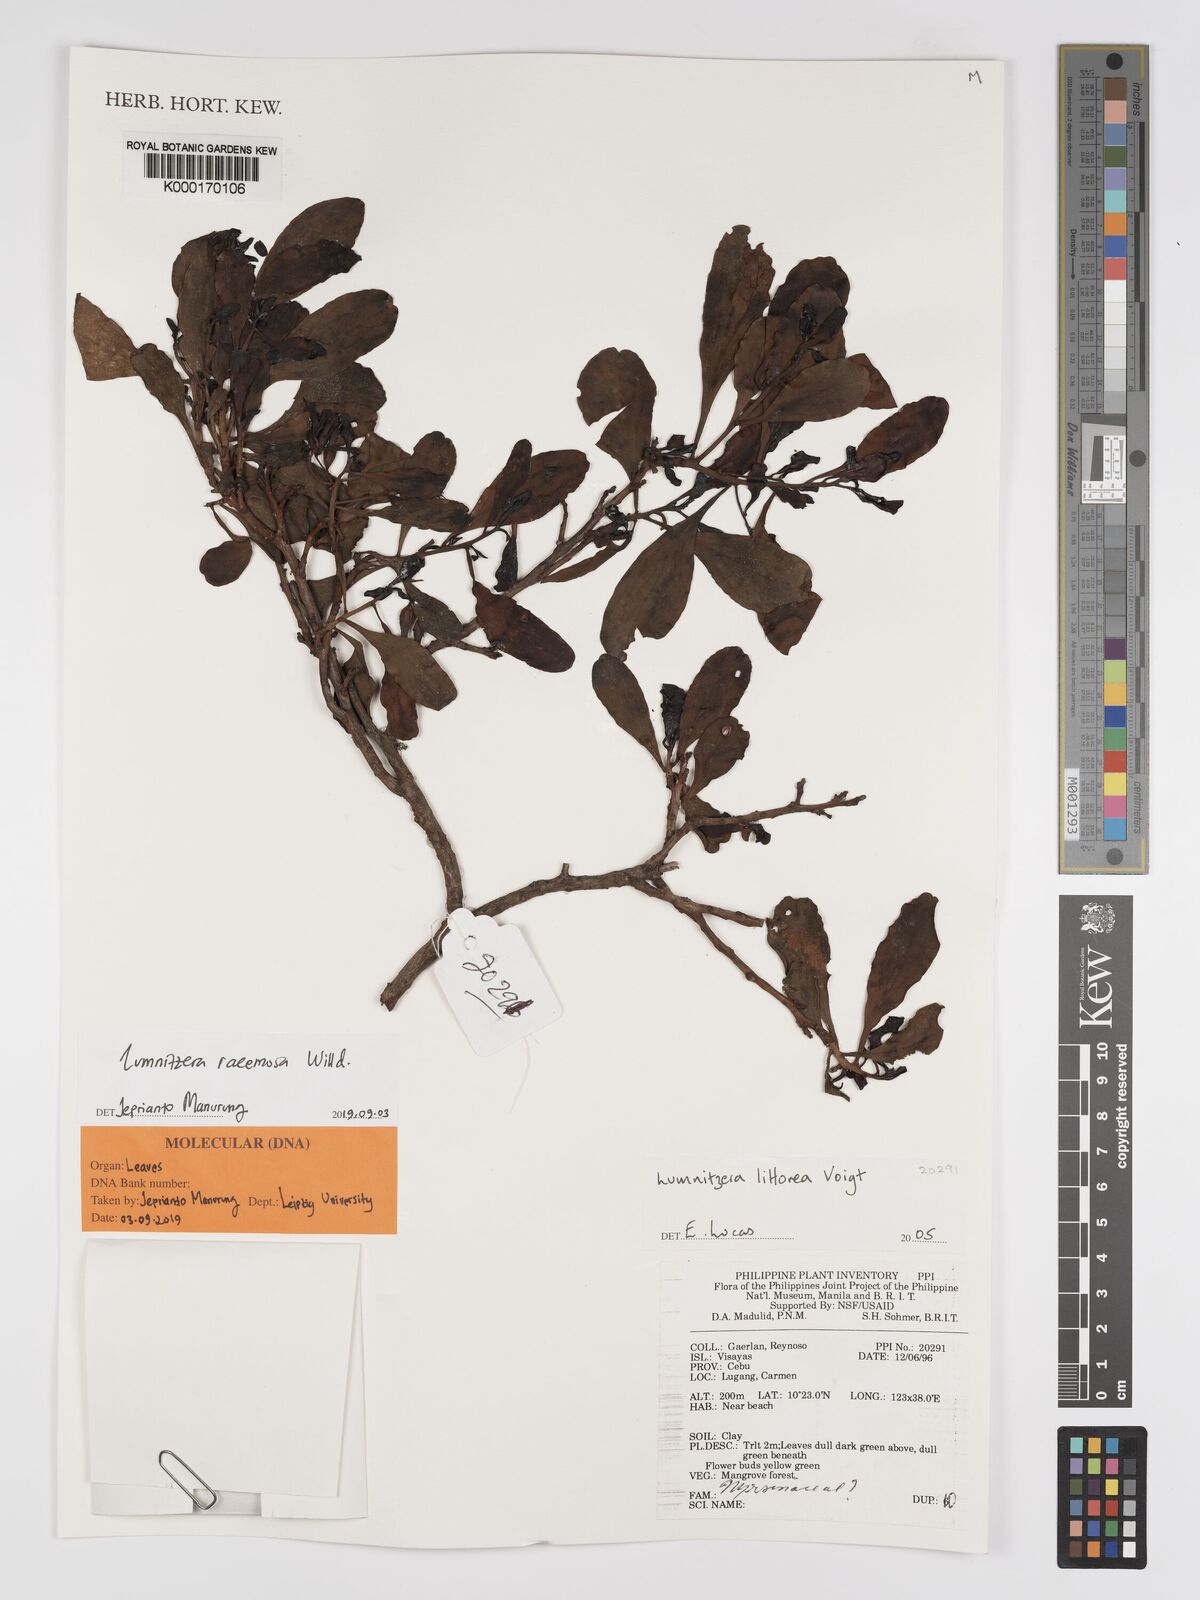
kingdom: Plantae
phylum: Tracheophyta
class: Magnoliopsida
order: Myrtales
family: Combretaceae
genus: Lumnitzera
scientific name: Lumnitzera littorea
